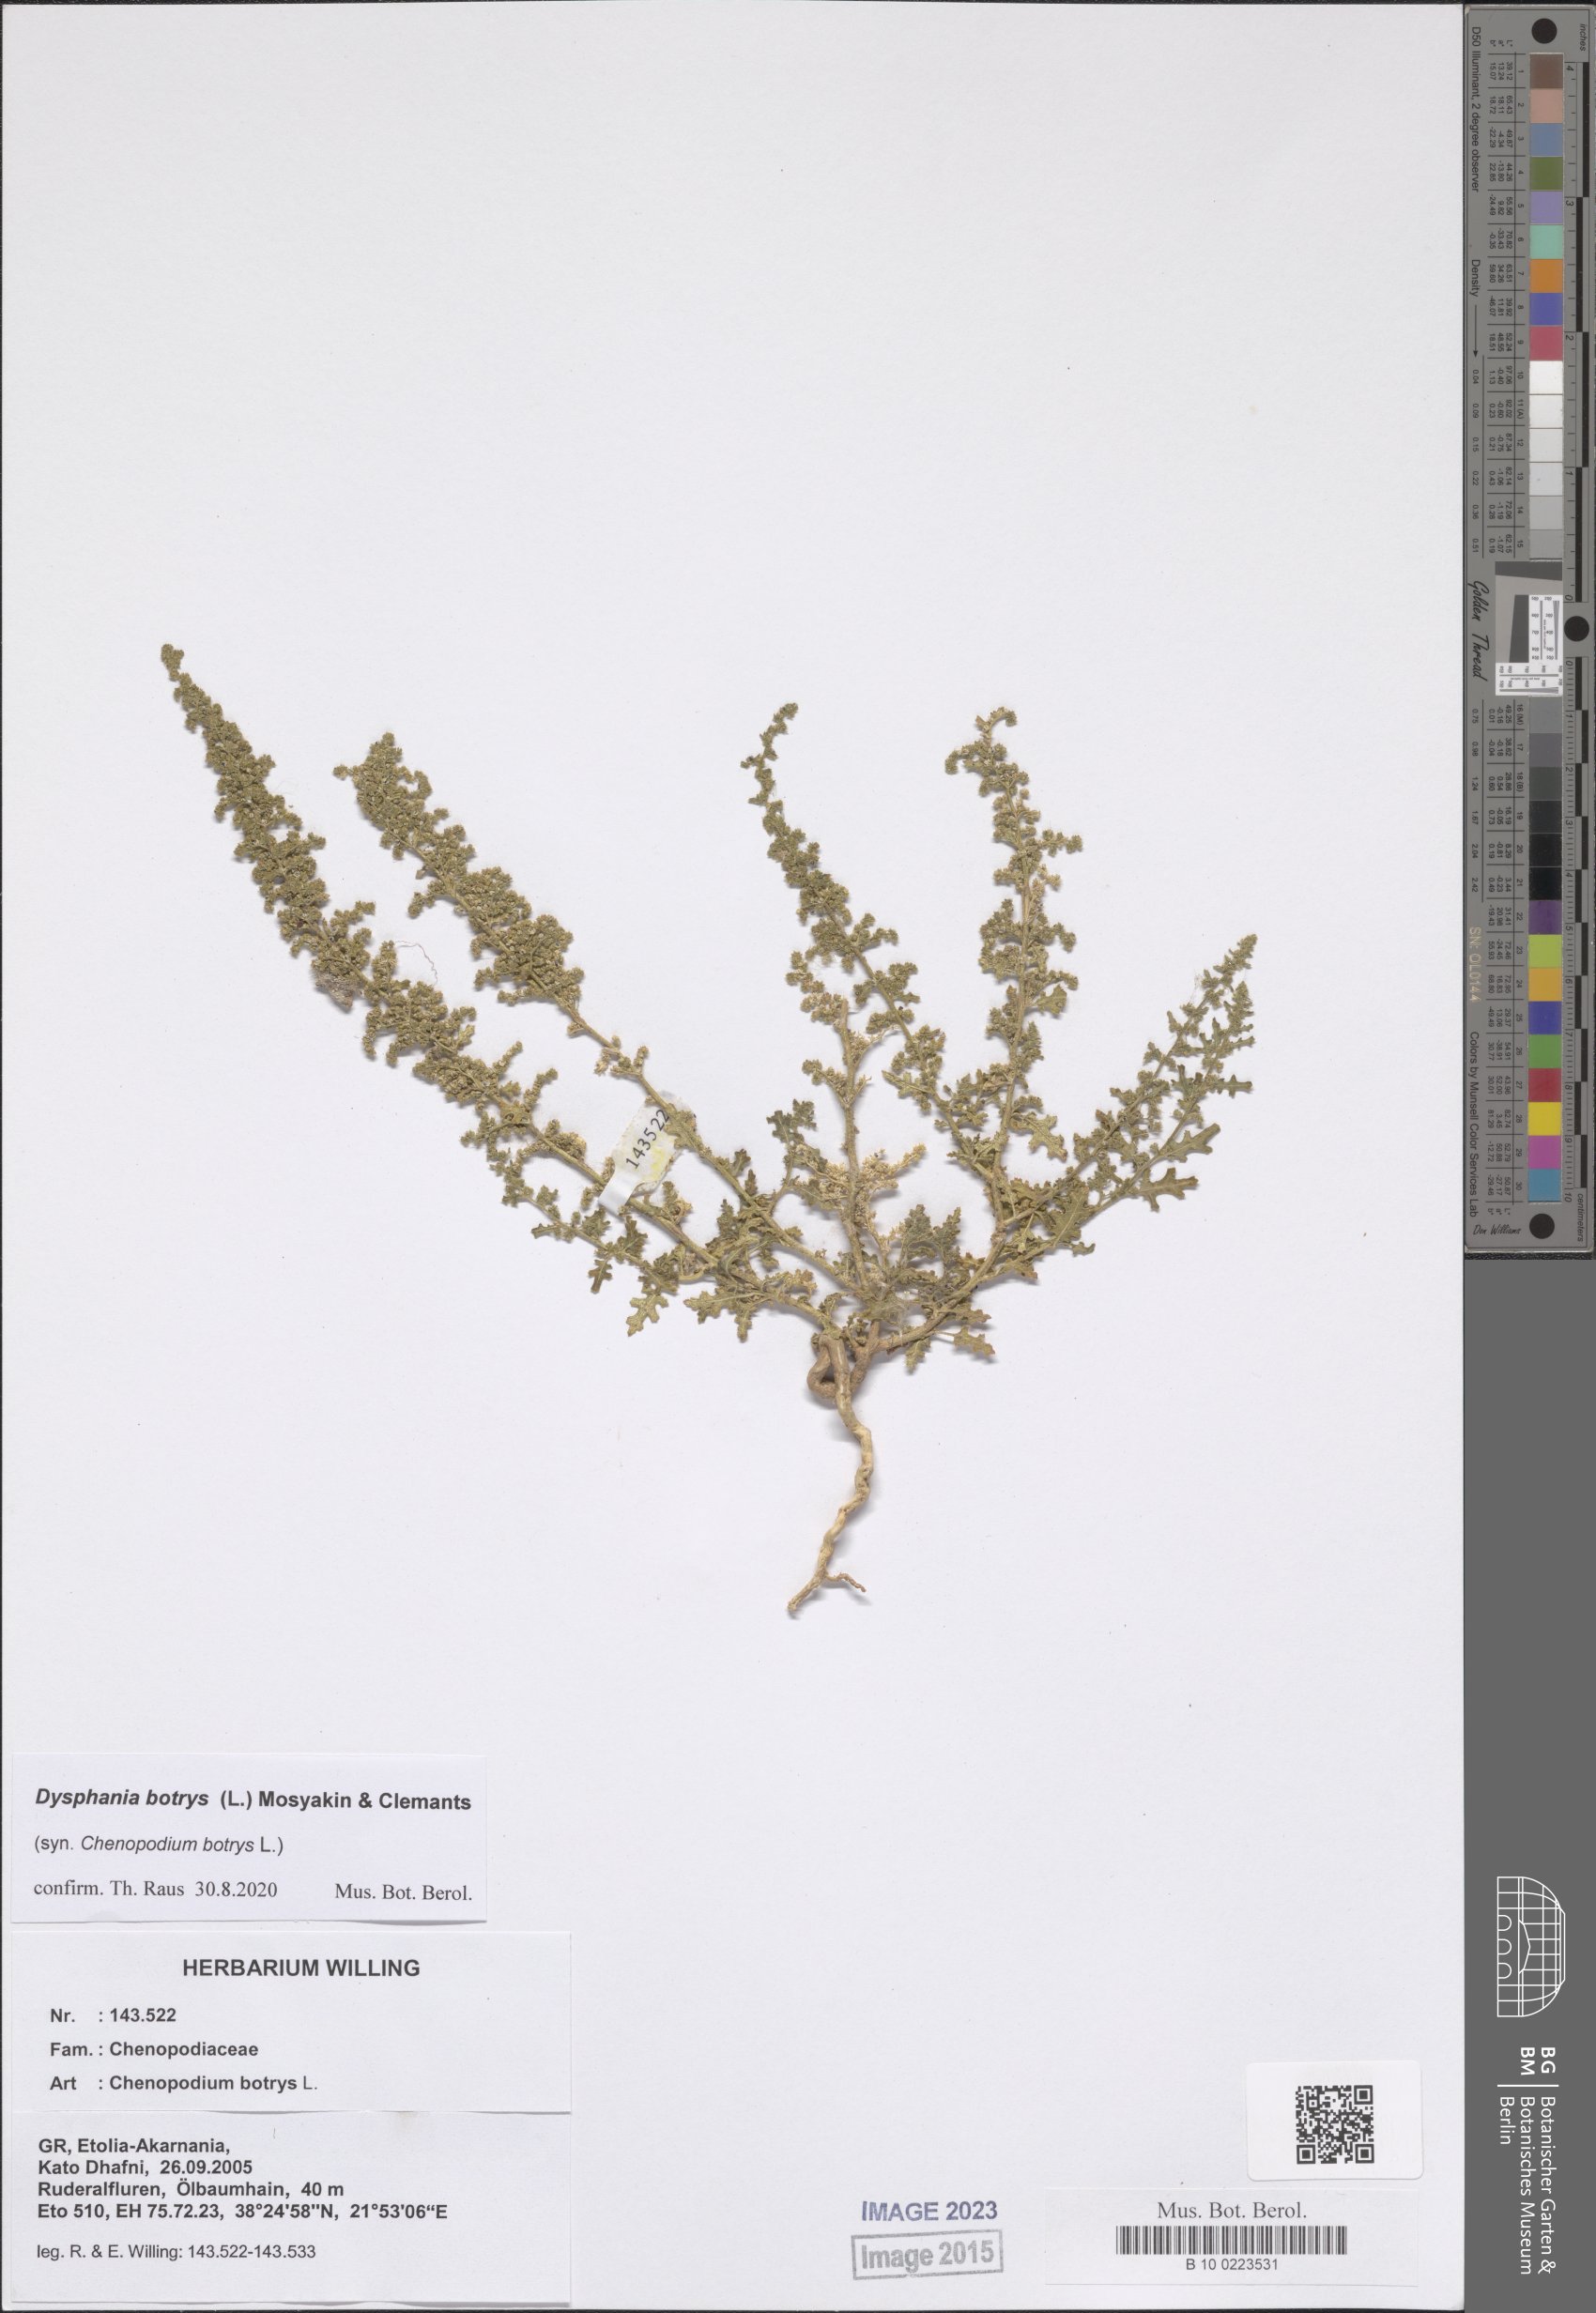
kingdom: Plantae
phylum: Tracheophyta
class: Magnoliopsida
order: Caryophyllales
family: Amaranthaceae
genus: Dysphania
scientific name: Dysphania botrys
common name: Feather-geranium
